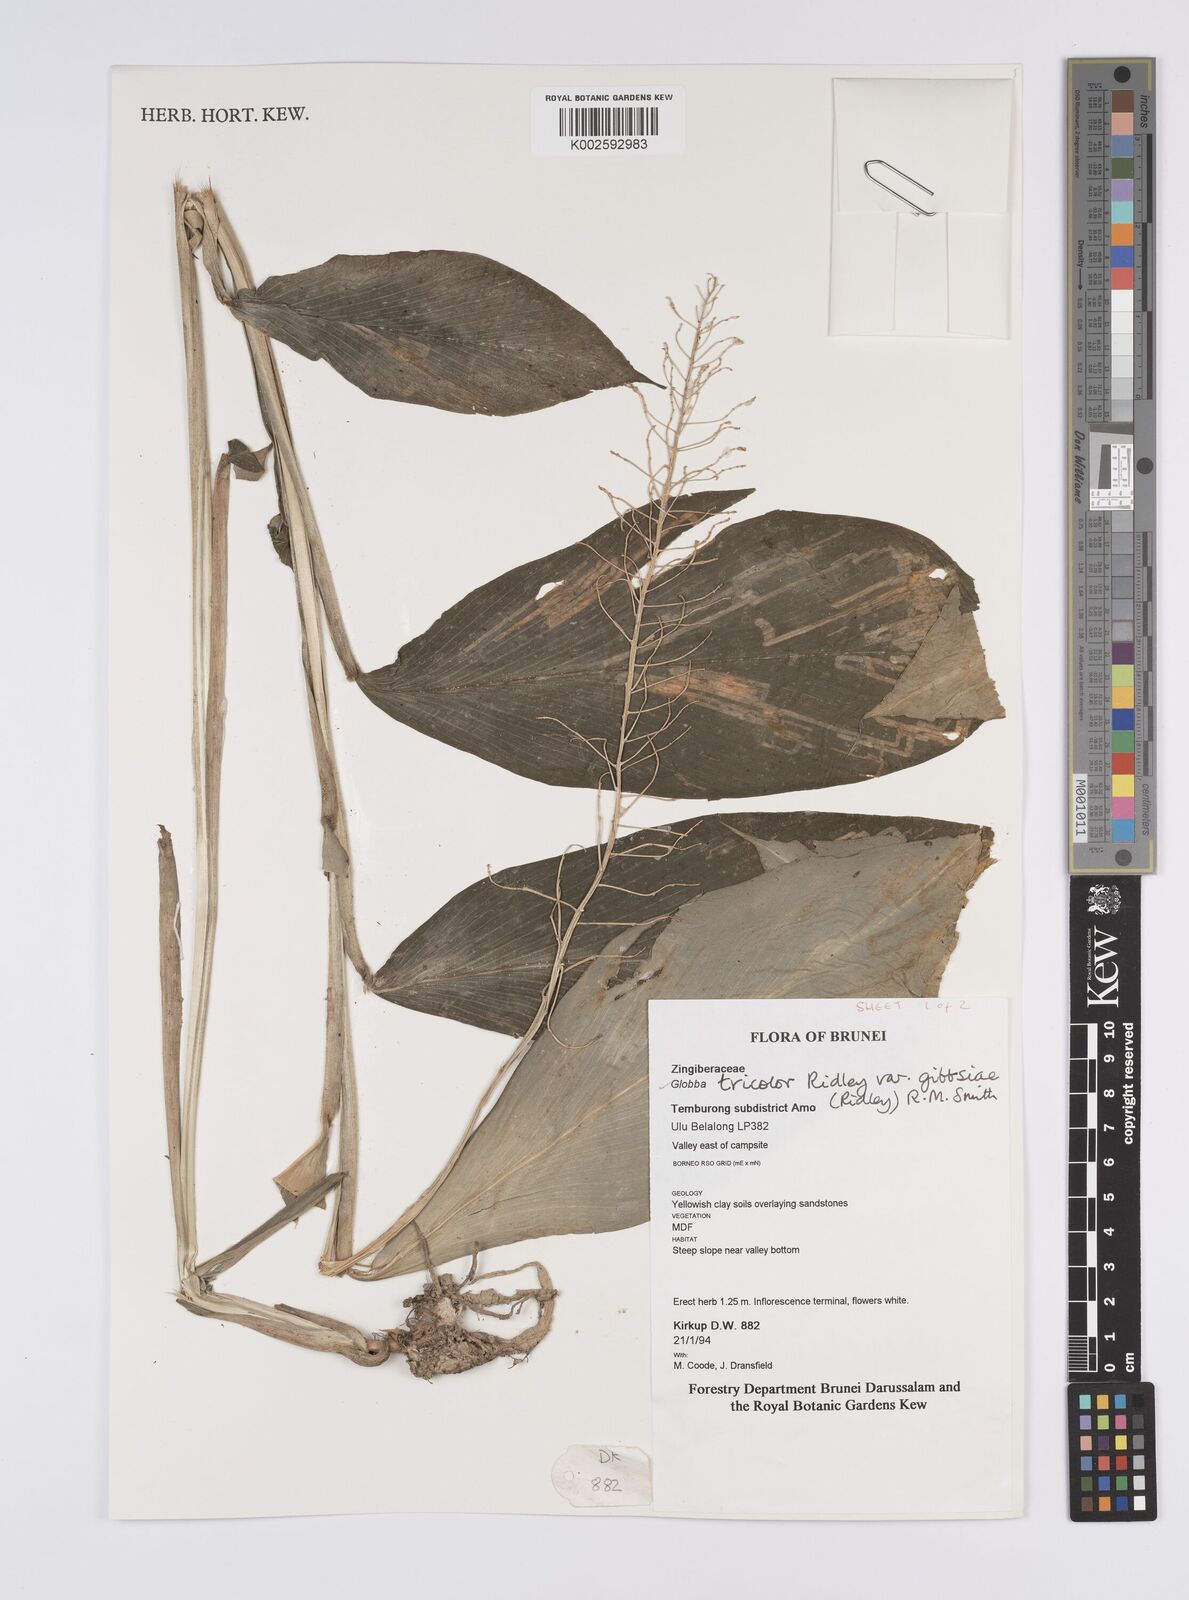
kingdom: Plantae
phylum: Tracheophyta
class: Liliopsida
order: Zingiberales
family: Zingiberaceae
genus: Globba
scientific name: Globba tricolor
